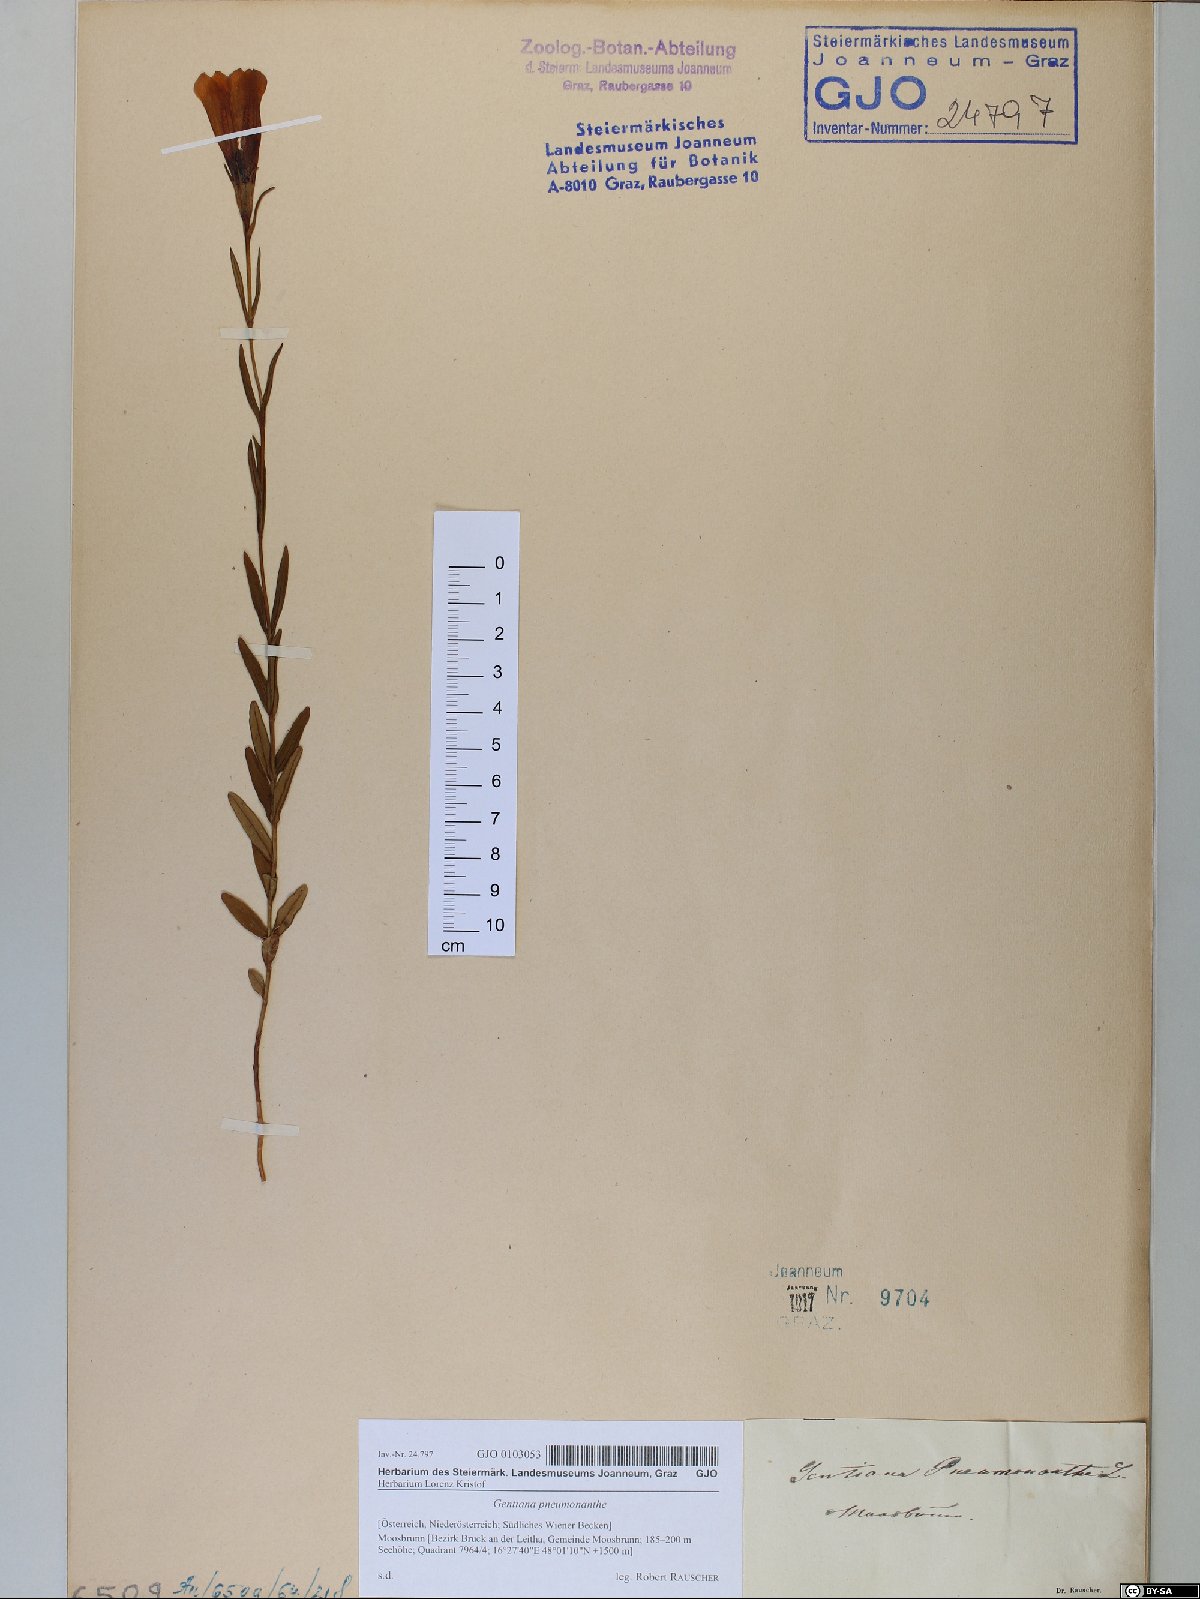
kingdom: Plantae
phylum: Tracheophyta
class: Magnoliopsida
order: Gentianales
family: Gentianaceae
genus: Gentiana
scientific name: Gentiana pneumonanthe
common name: Marsh gentian
